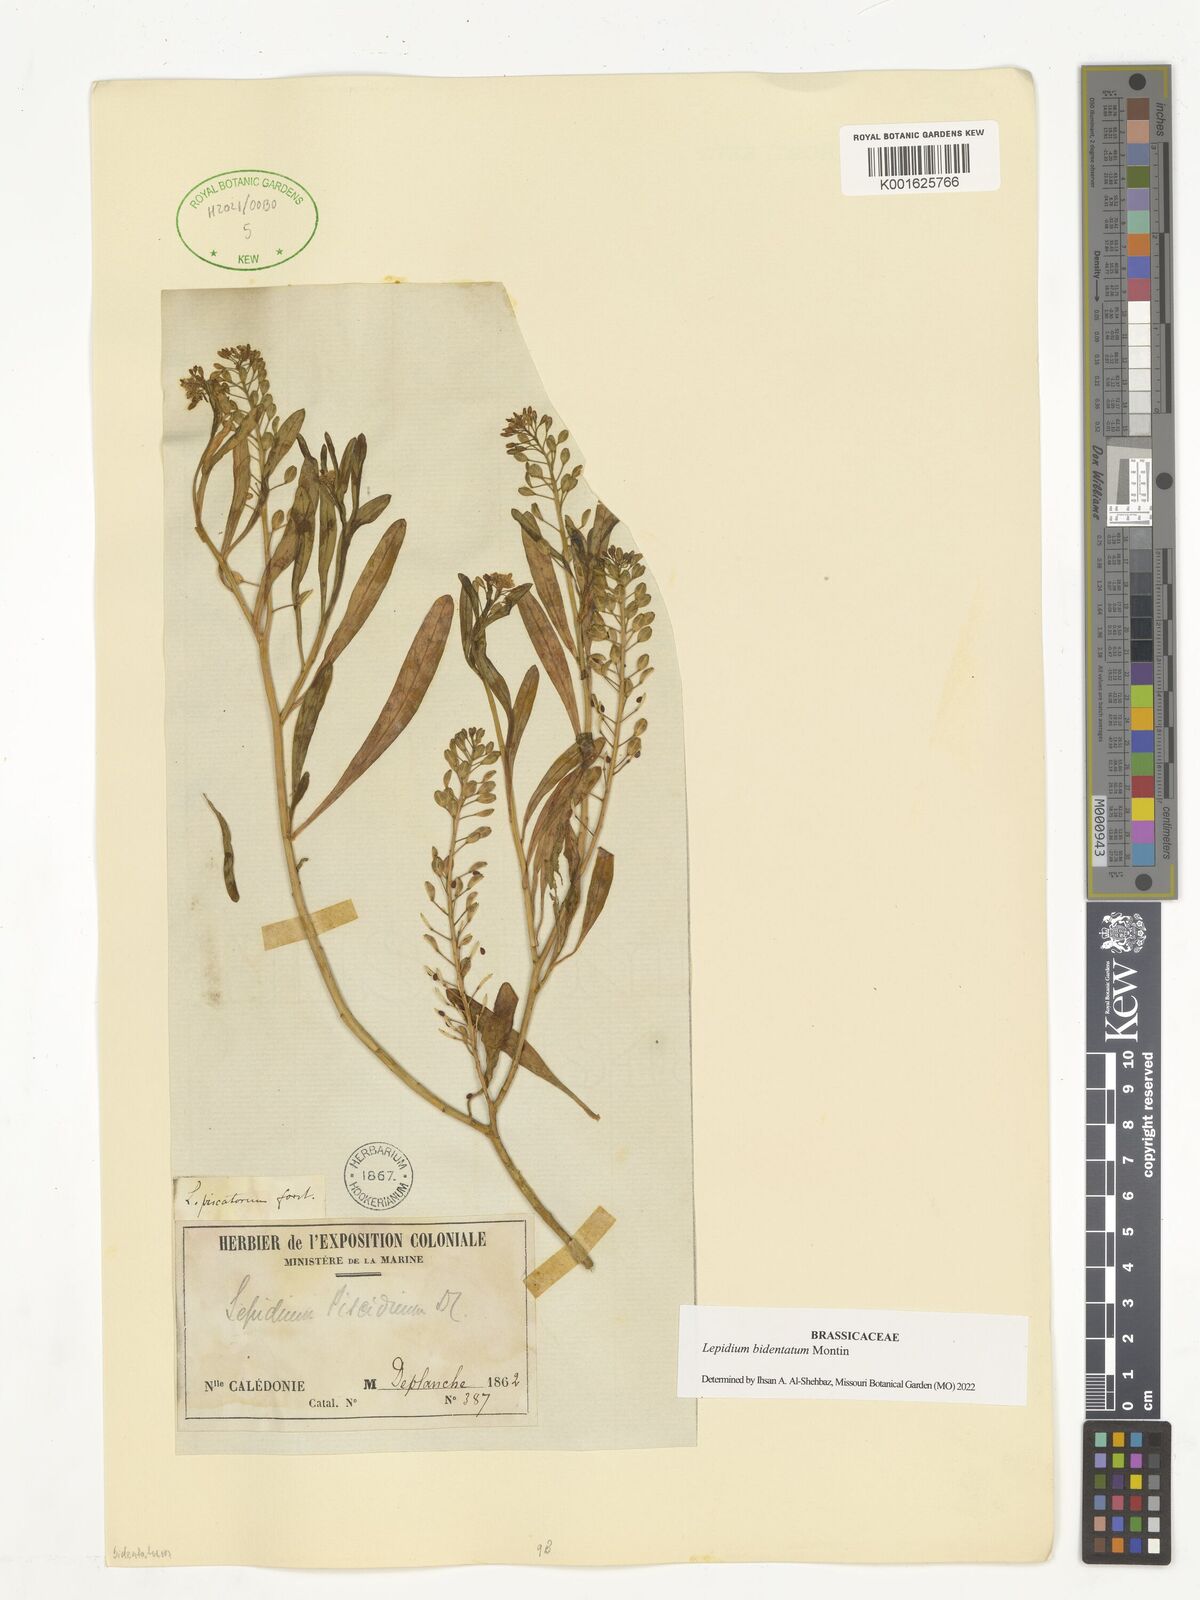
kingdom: Plantae
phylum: Tracheophyta
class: Magnoliopsida
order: Brassicales
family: Brassicaceae
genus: Lepidium
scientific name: Lepidium bidentatum
